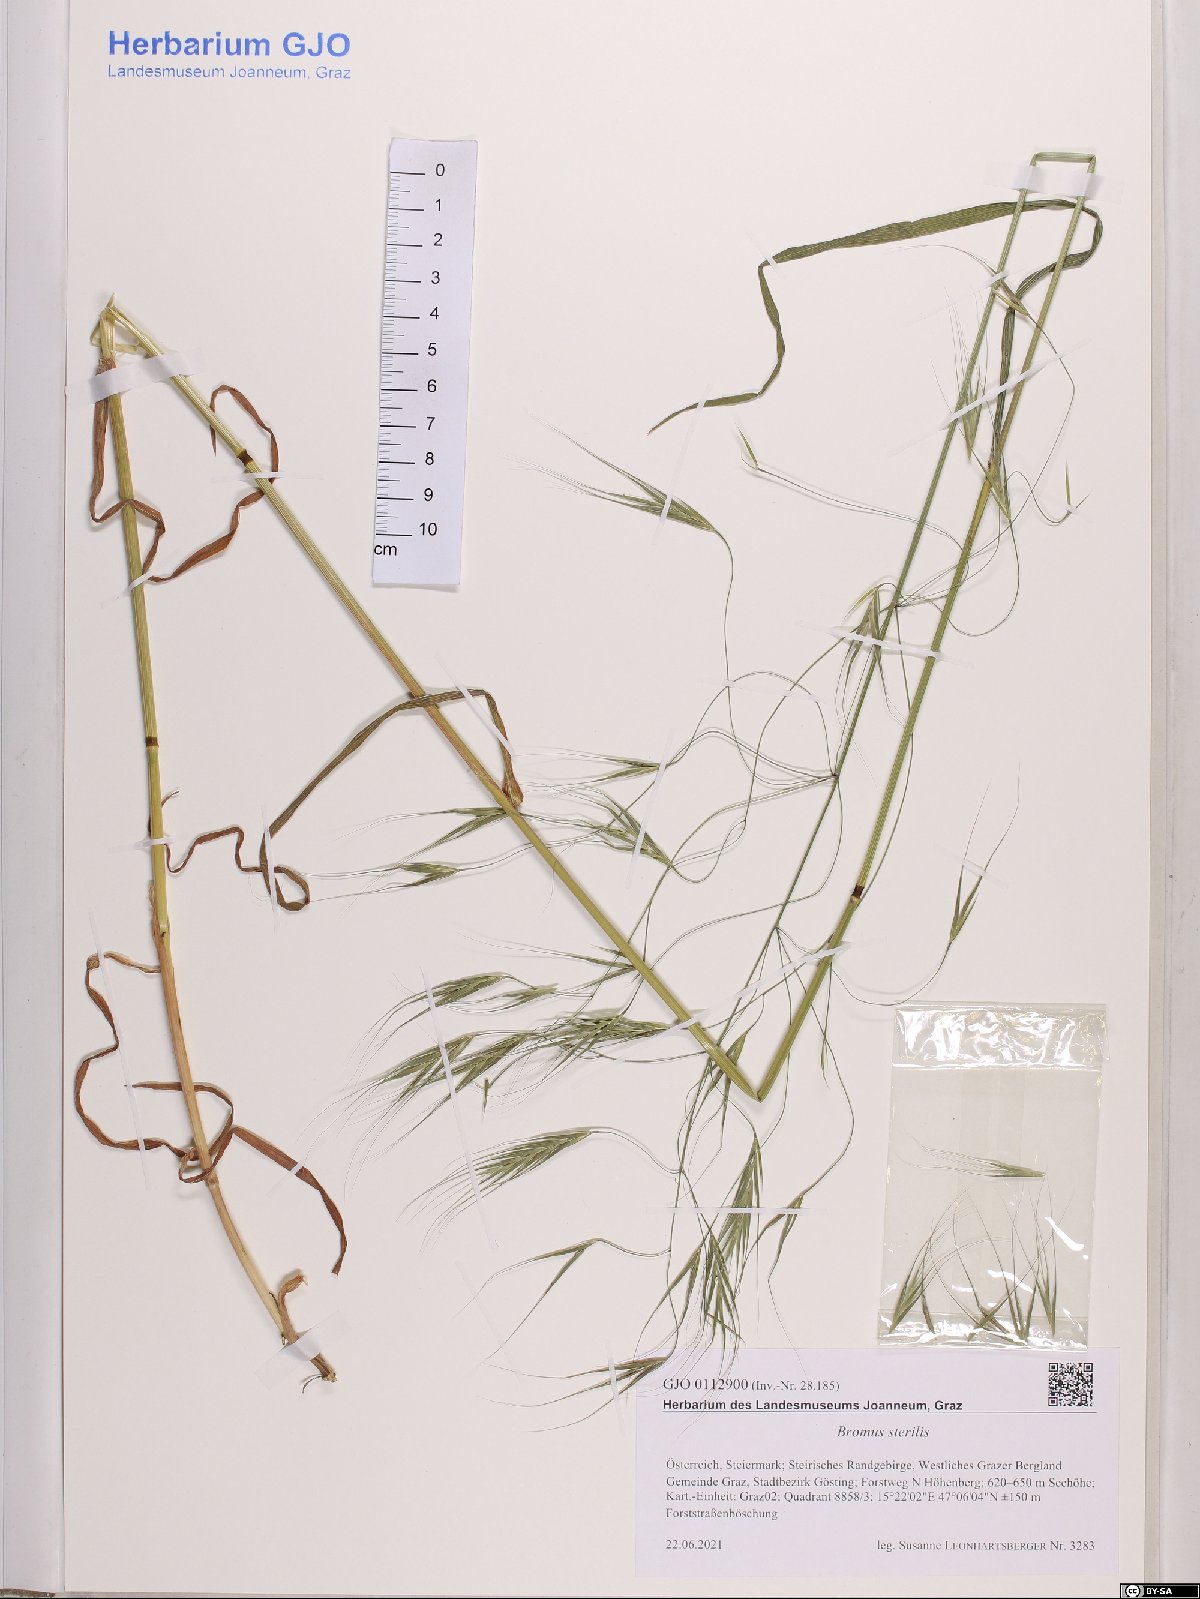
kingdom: Plantae
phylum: Tracheophyta
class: Liliopsida
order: Poales
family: Poaceae
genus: Bromus
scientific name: Bromus sterilis
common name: Poverty brome
